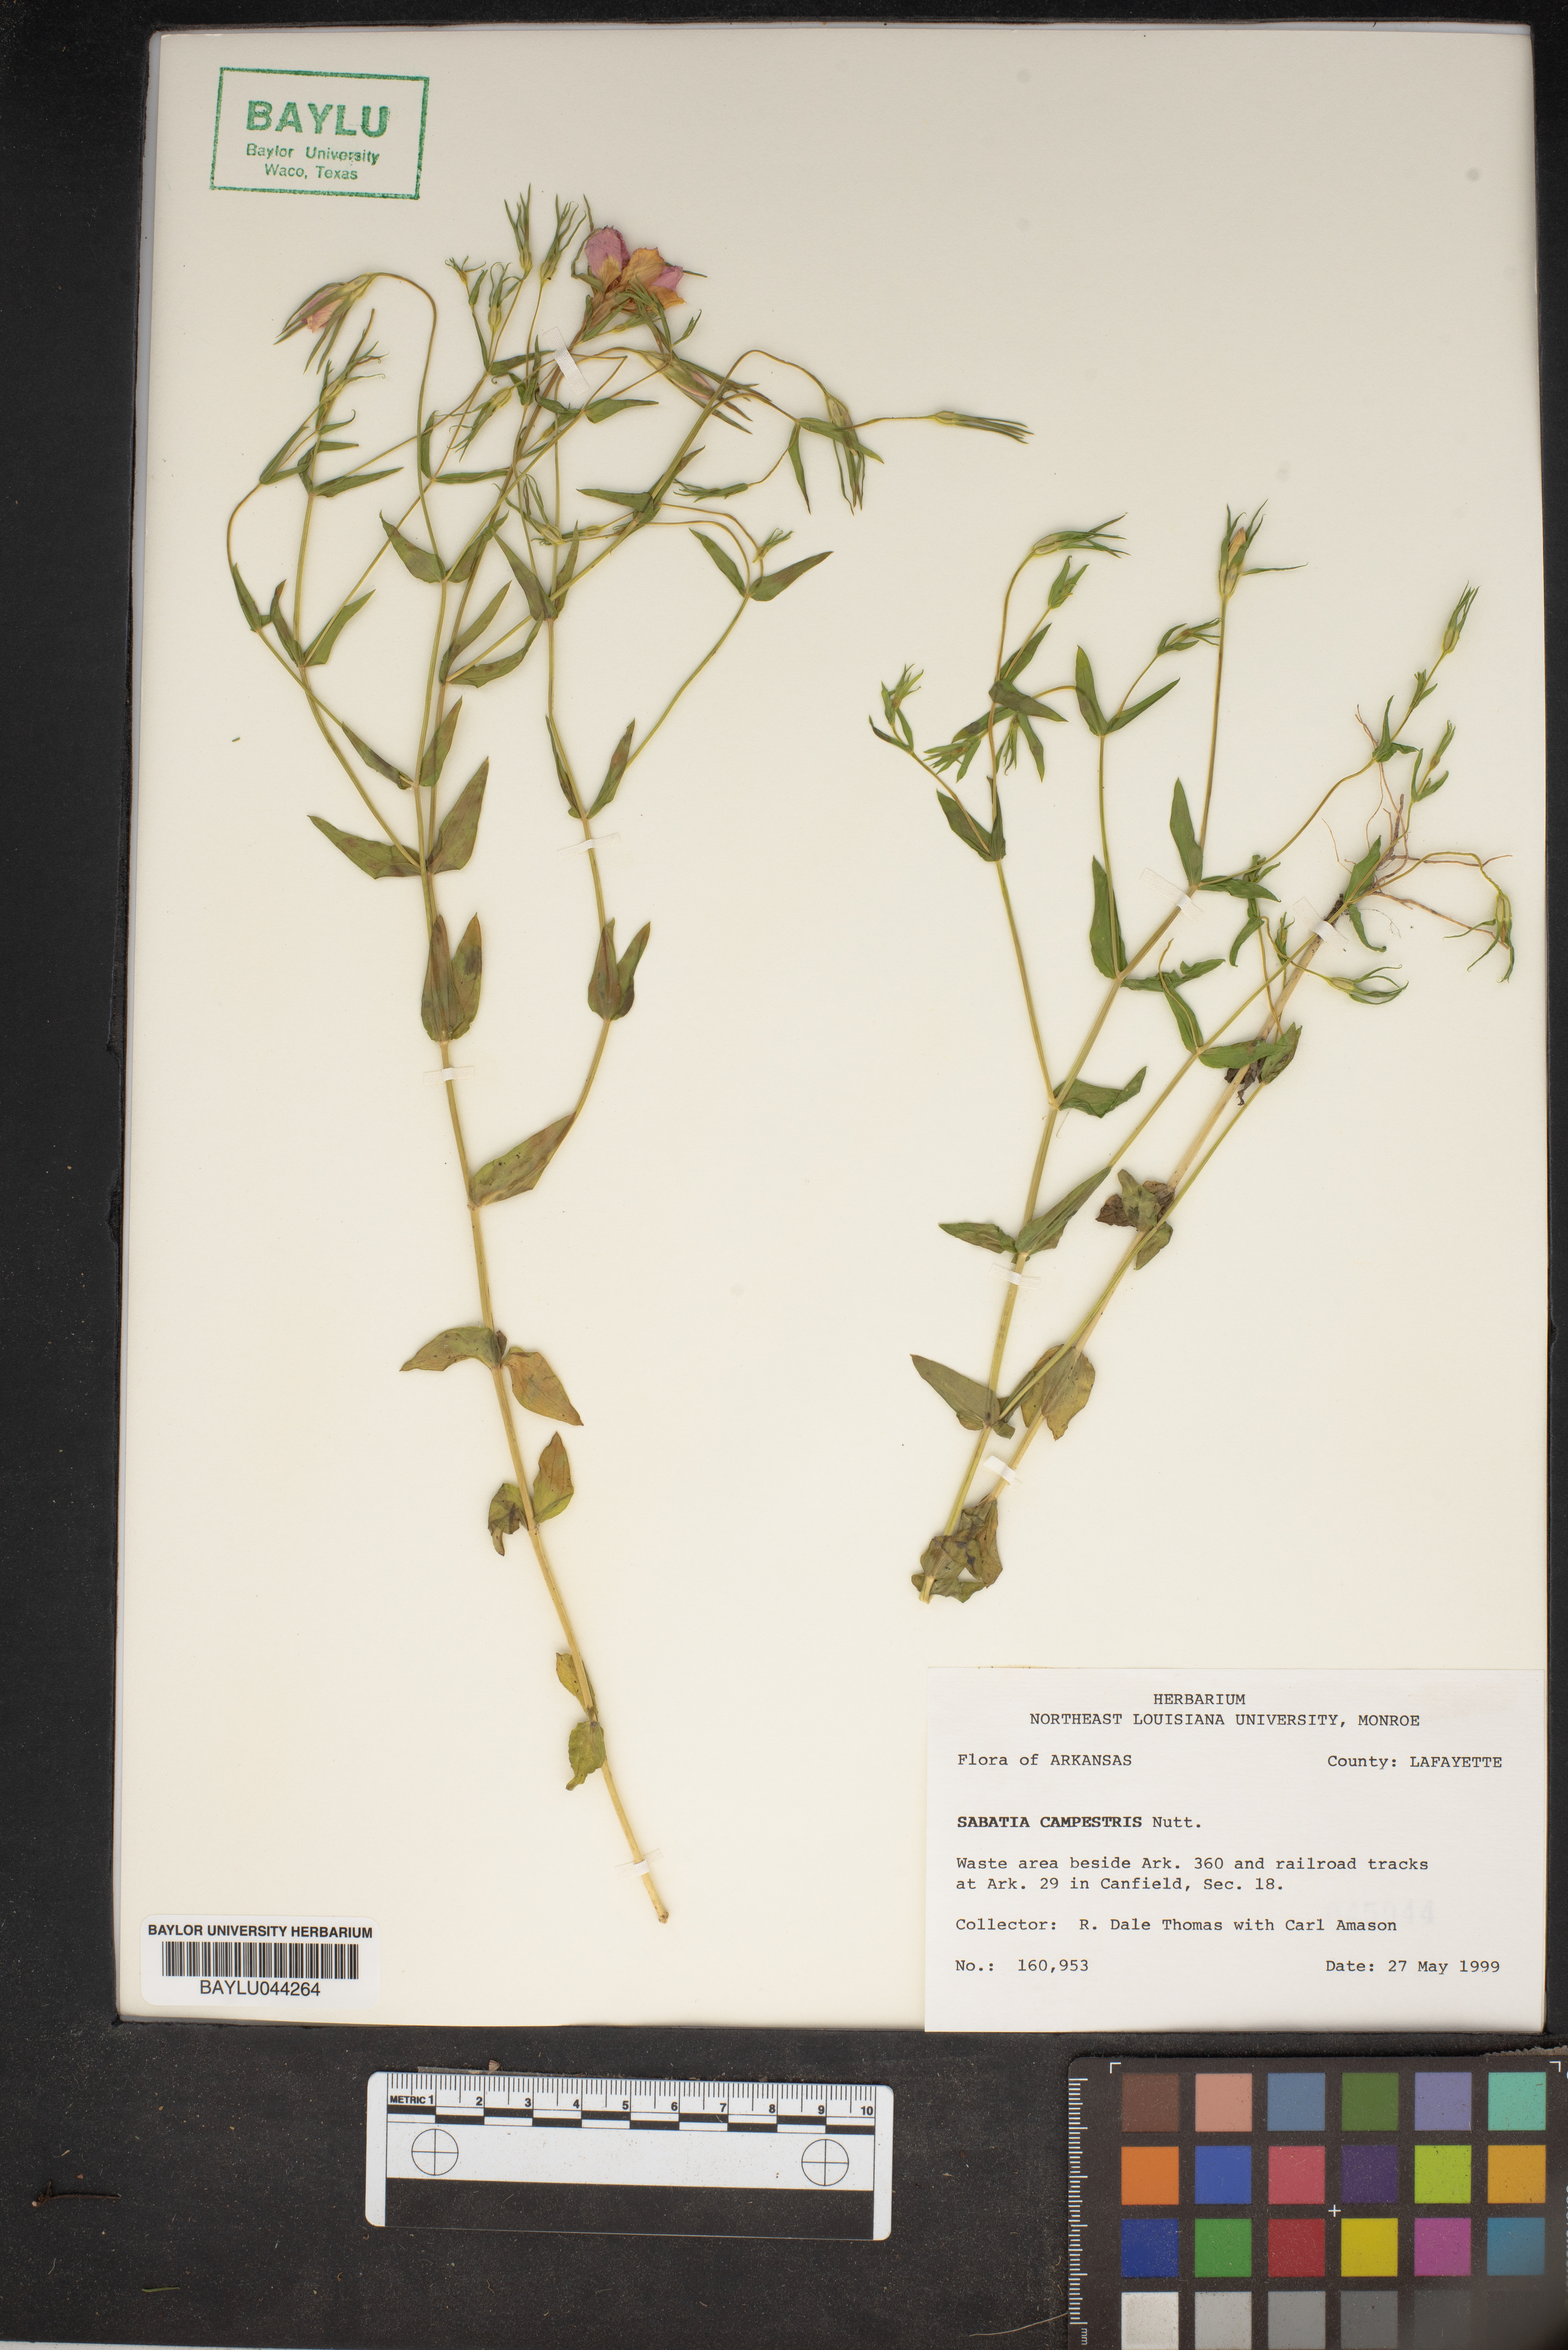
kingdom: Plantae
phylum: Tracheophyta
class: Magnoliopsida
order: Gentianales
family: Gentianaceae
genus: Sabatia
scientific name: Sabatia campestris
